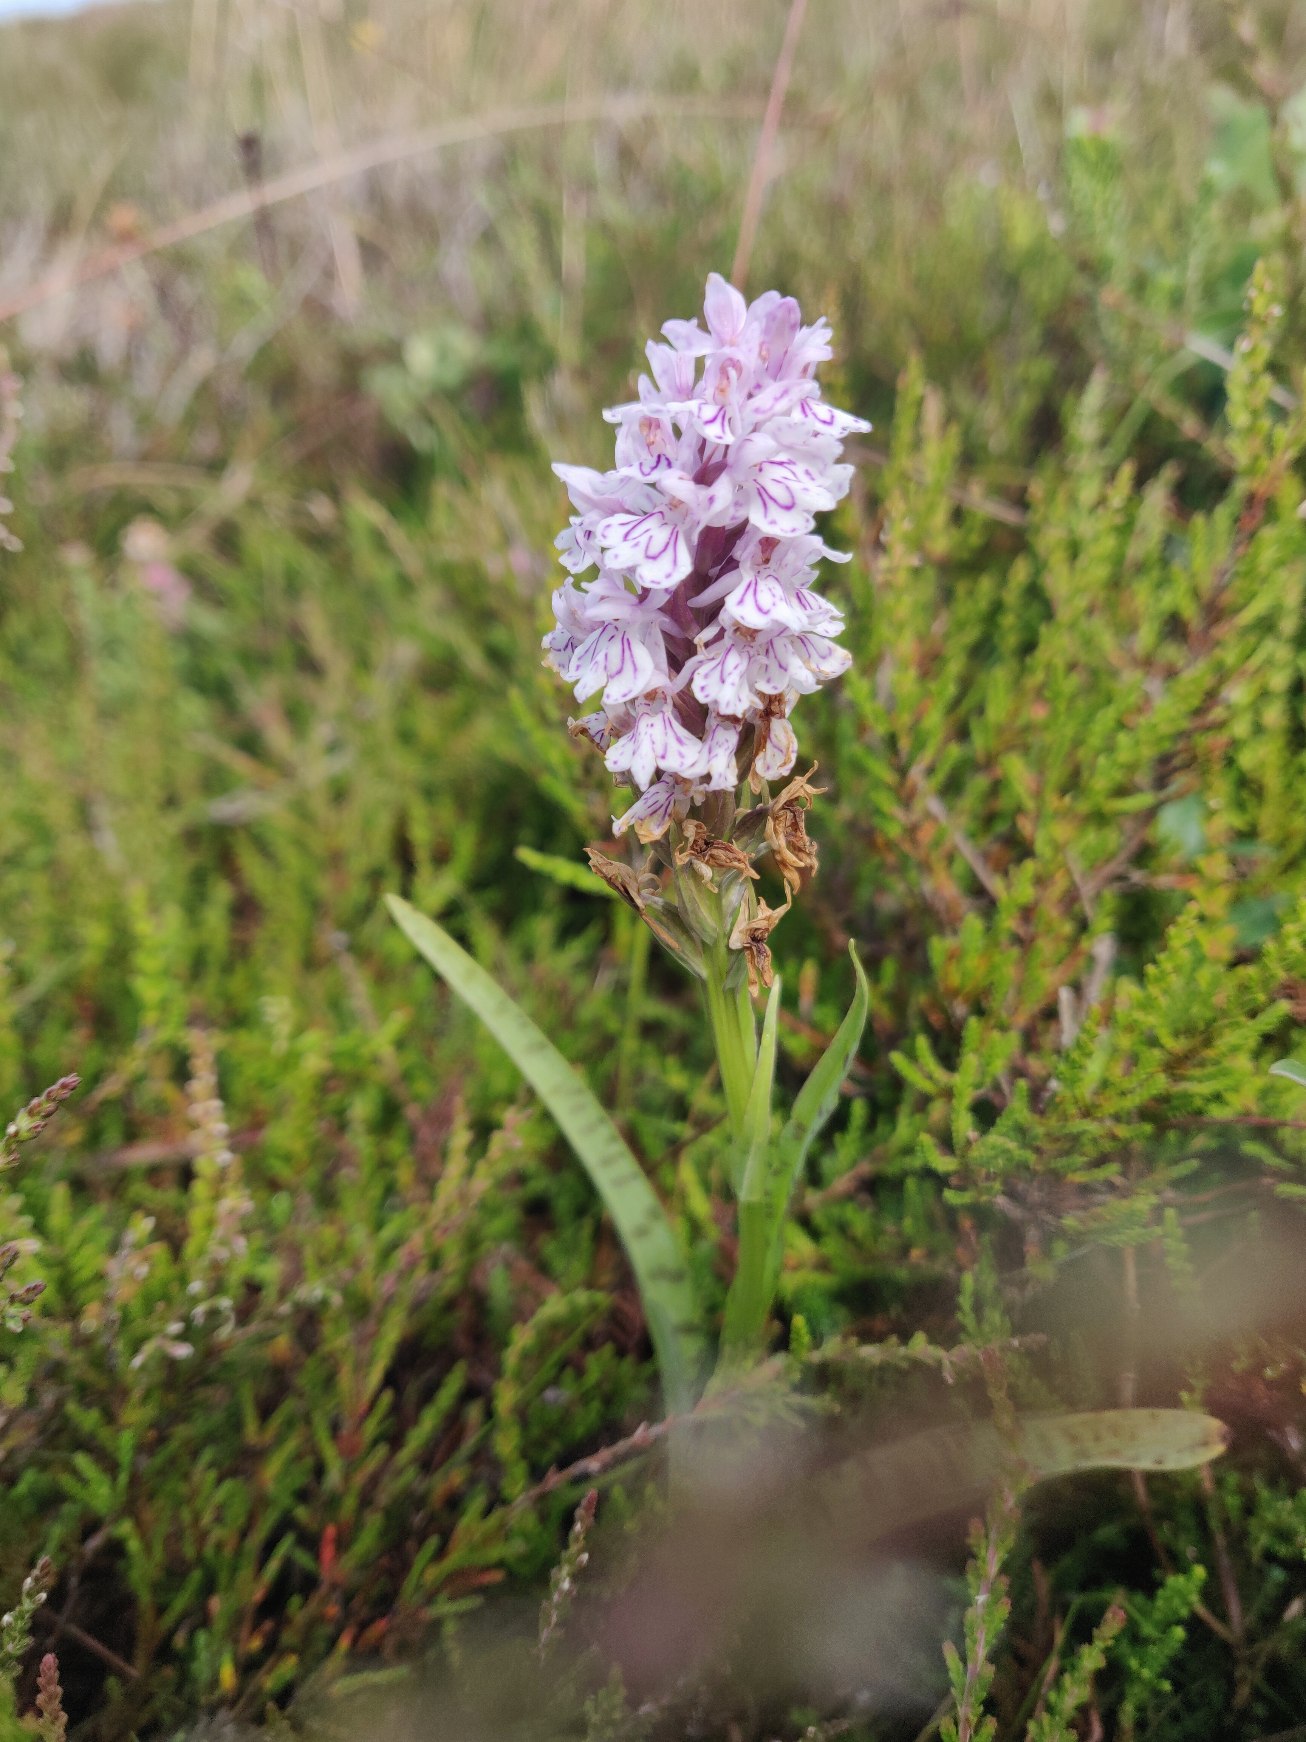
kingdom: Plantae
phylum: Tracheophyta
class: Liliopsida
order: Asparagales
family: Orchidaceae
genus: Dactylorhiza
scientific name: Dactylorhiza maculata
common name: Plettet gøgeurt (underart)
